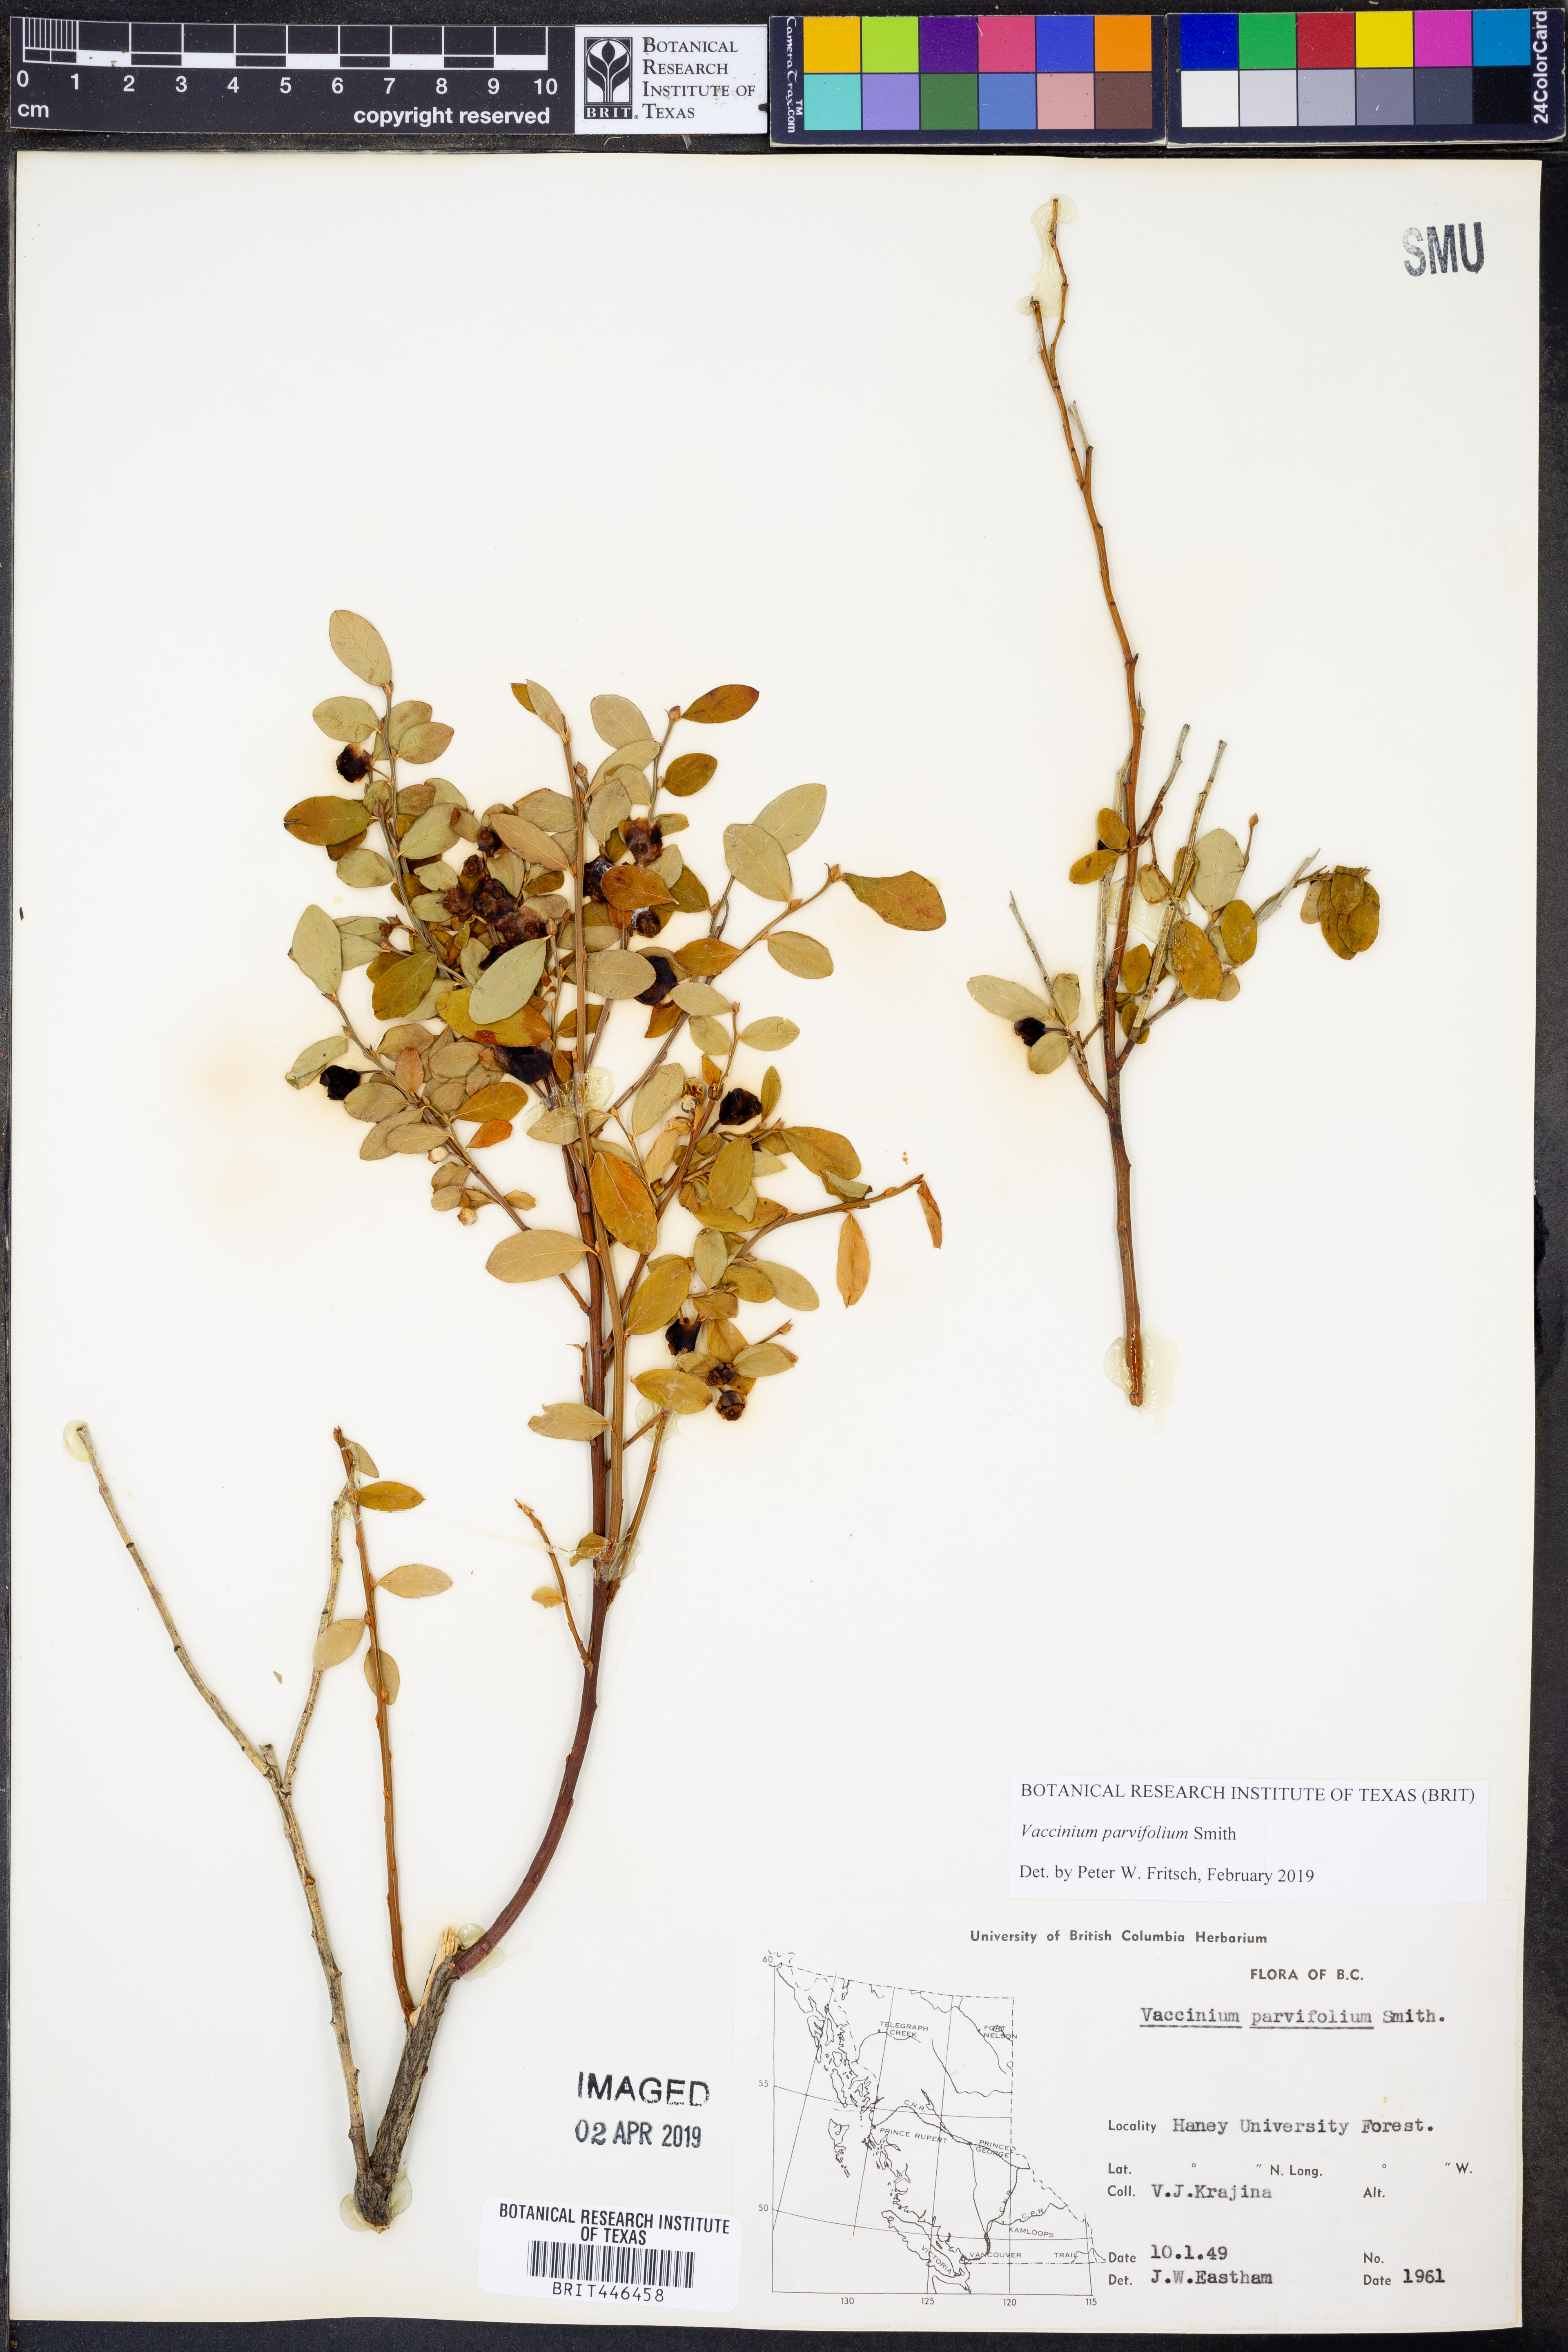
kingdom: Plantae
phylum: Tracheophyta
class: Magnoliopsida
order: Ericales
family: Ericaceae
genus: Vaccinium
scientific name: Vaccinium parvifolium
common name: Red-huckleberry
